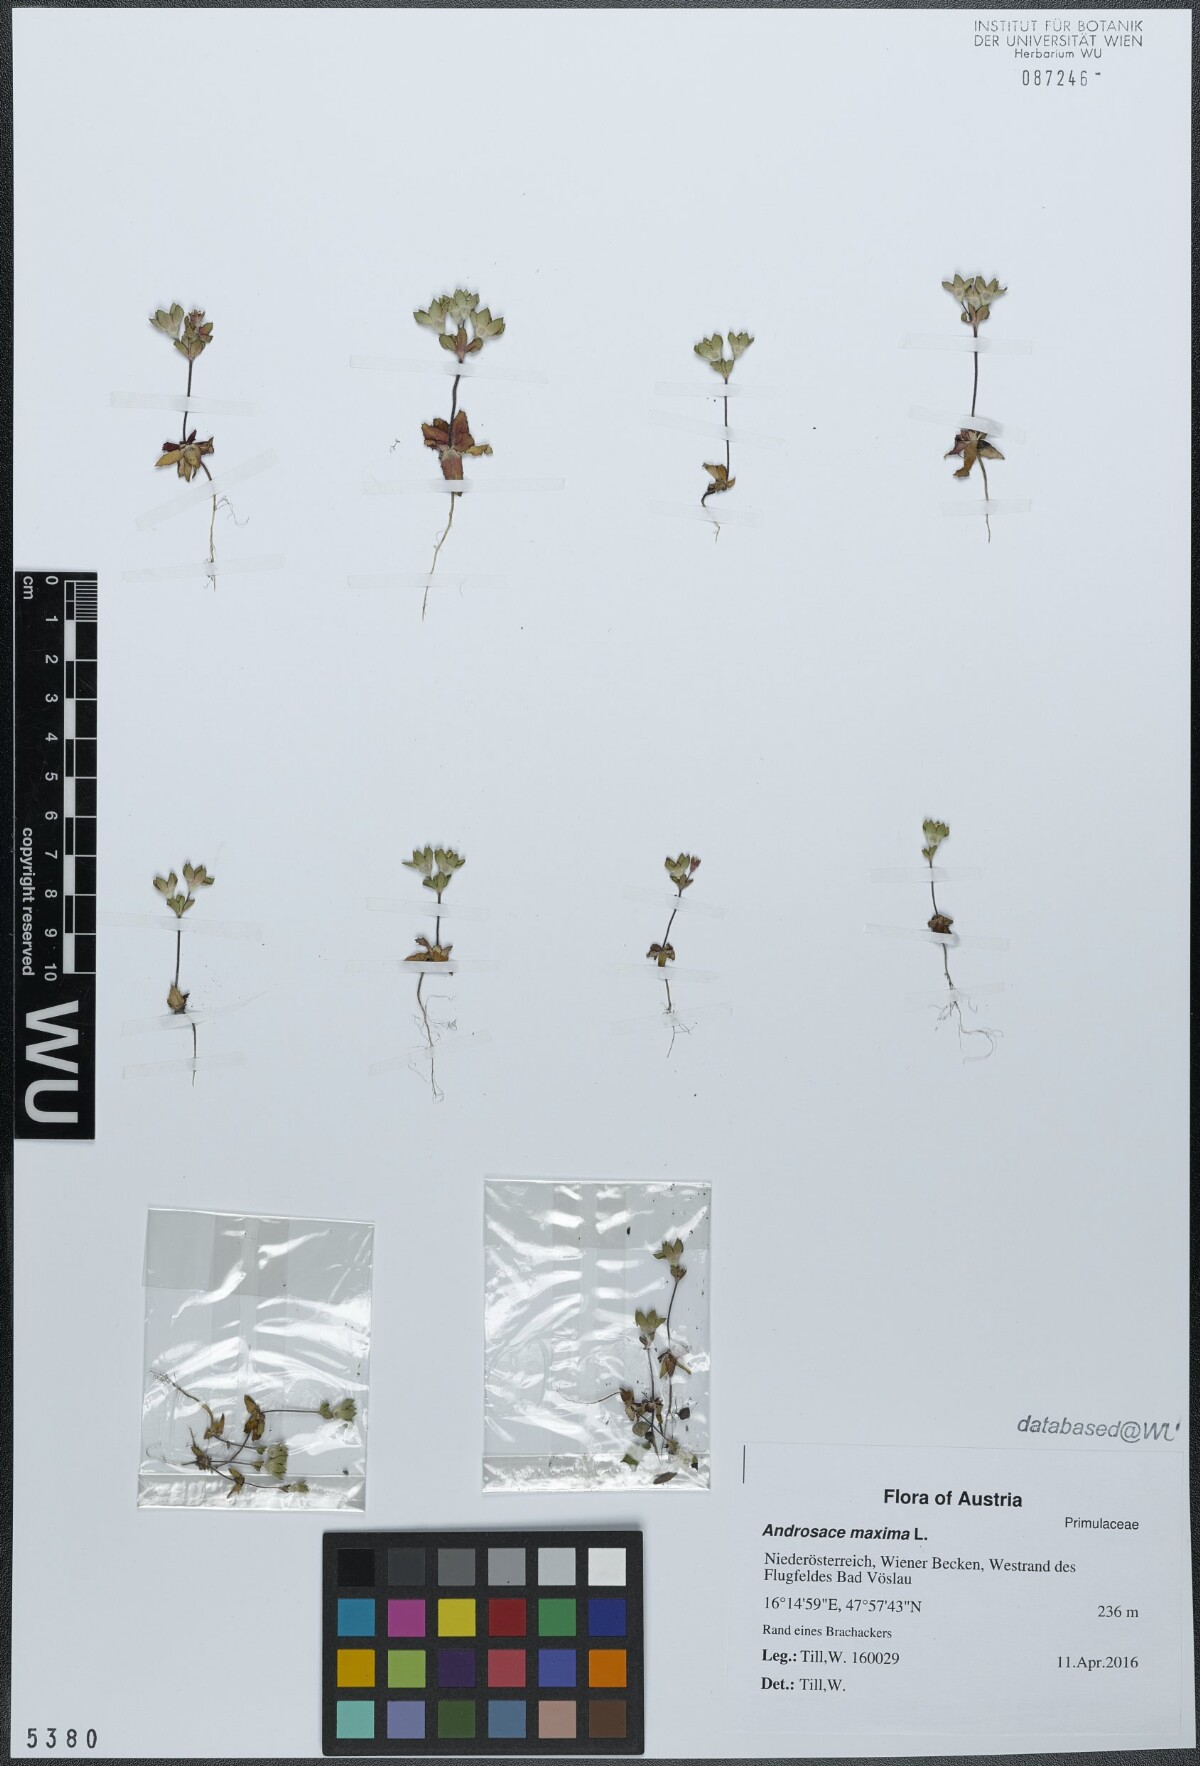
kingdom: Plantae
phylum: Tracheophyta
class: Magnoliopsida
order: Ericales
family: Primulaceae
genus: Androsace
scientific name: Androsace maxima
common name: Annual androsace
